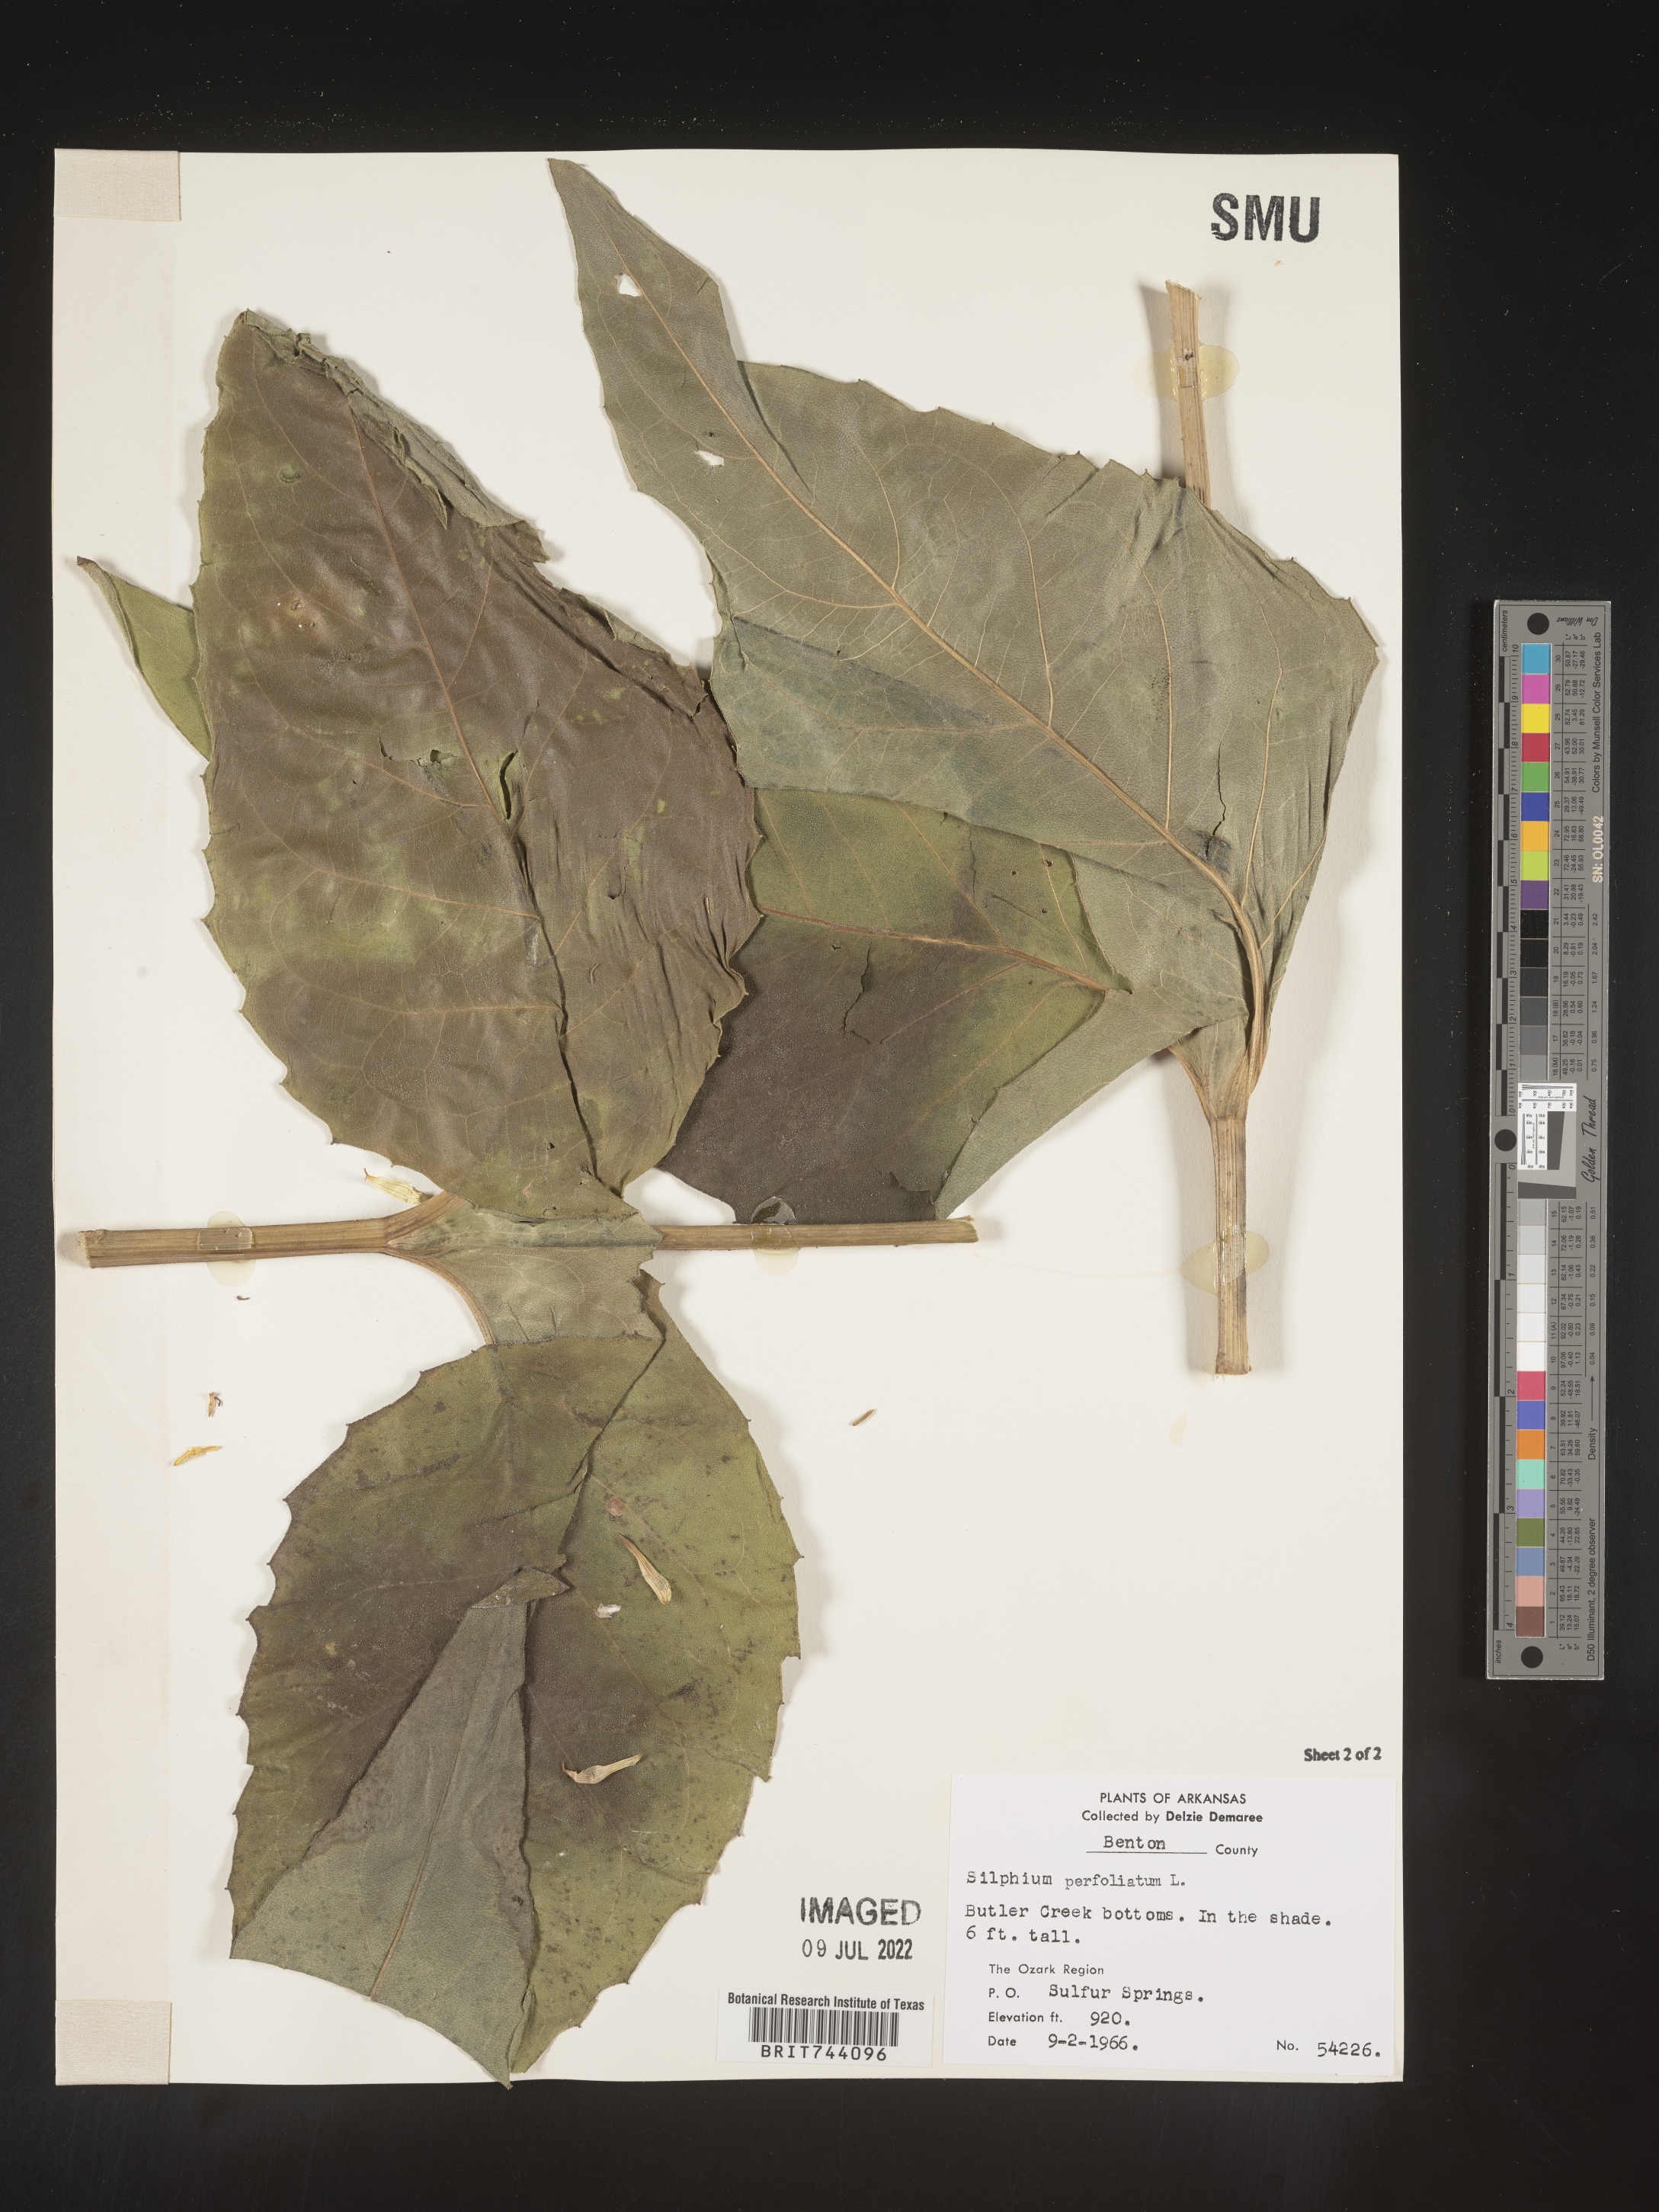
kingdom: Plantae
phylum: Tracheophyta
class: Magnoliopsida
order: Asterales
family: Asteraceae
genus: Silphium
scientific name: Silphium perfoliatum
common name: Cup-plant
